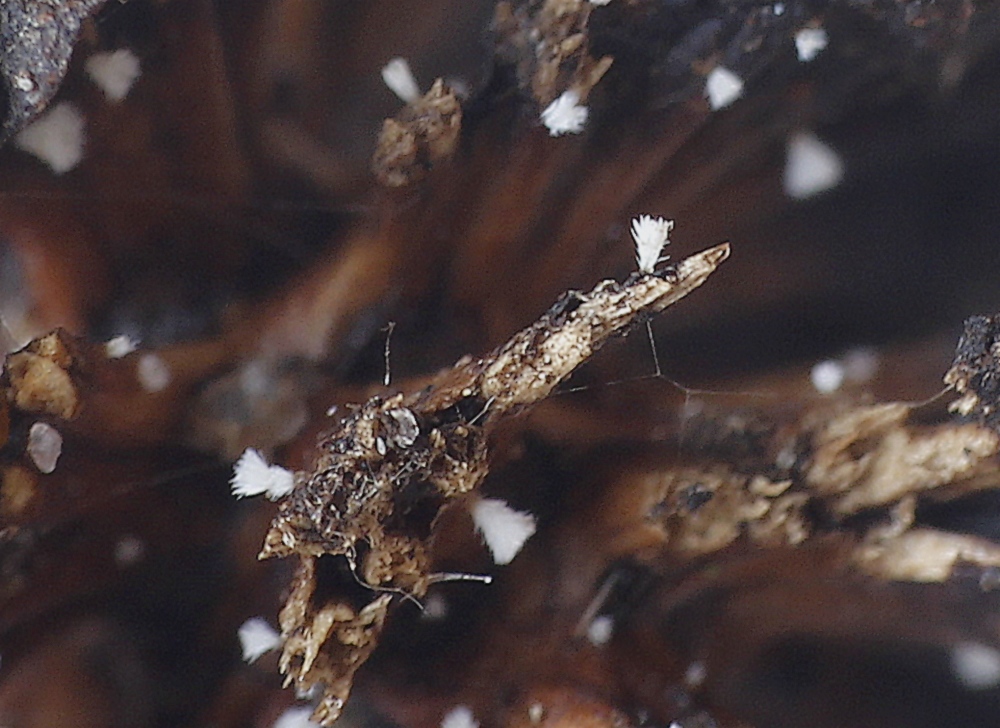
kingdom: Fungi
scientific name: Fungi
